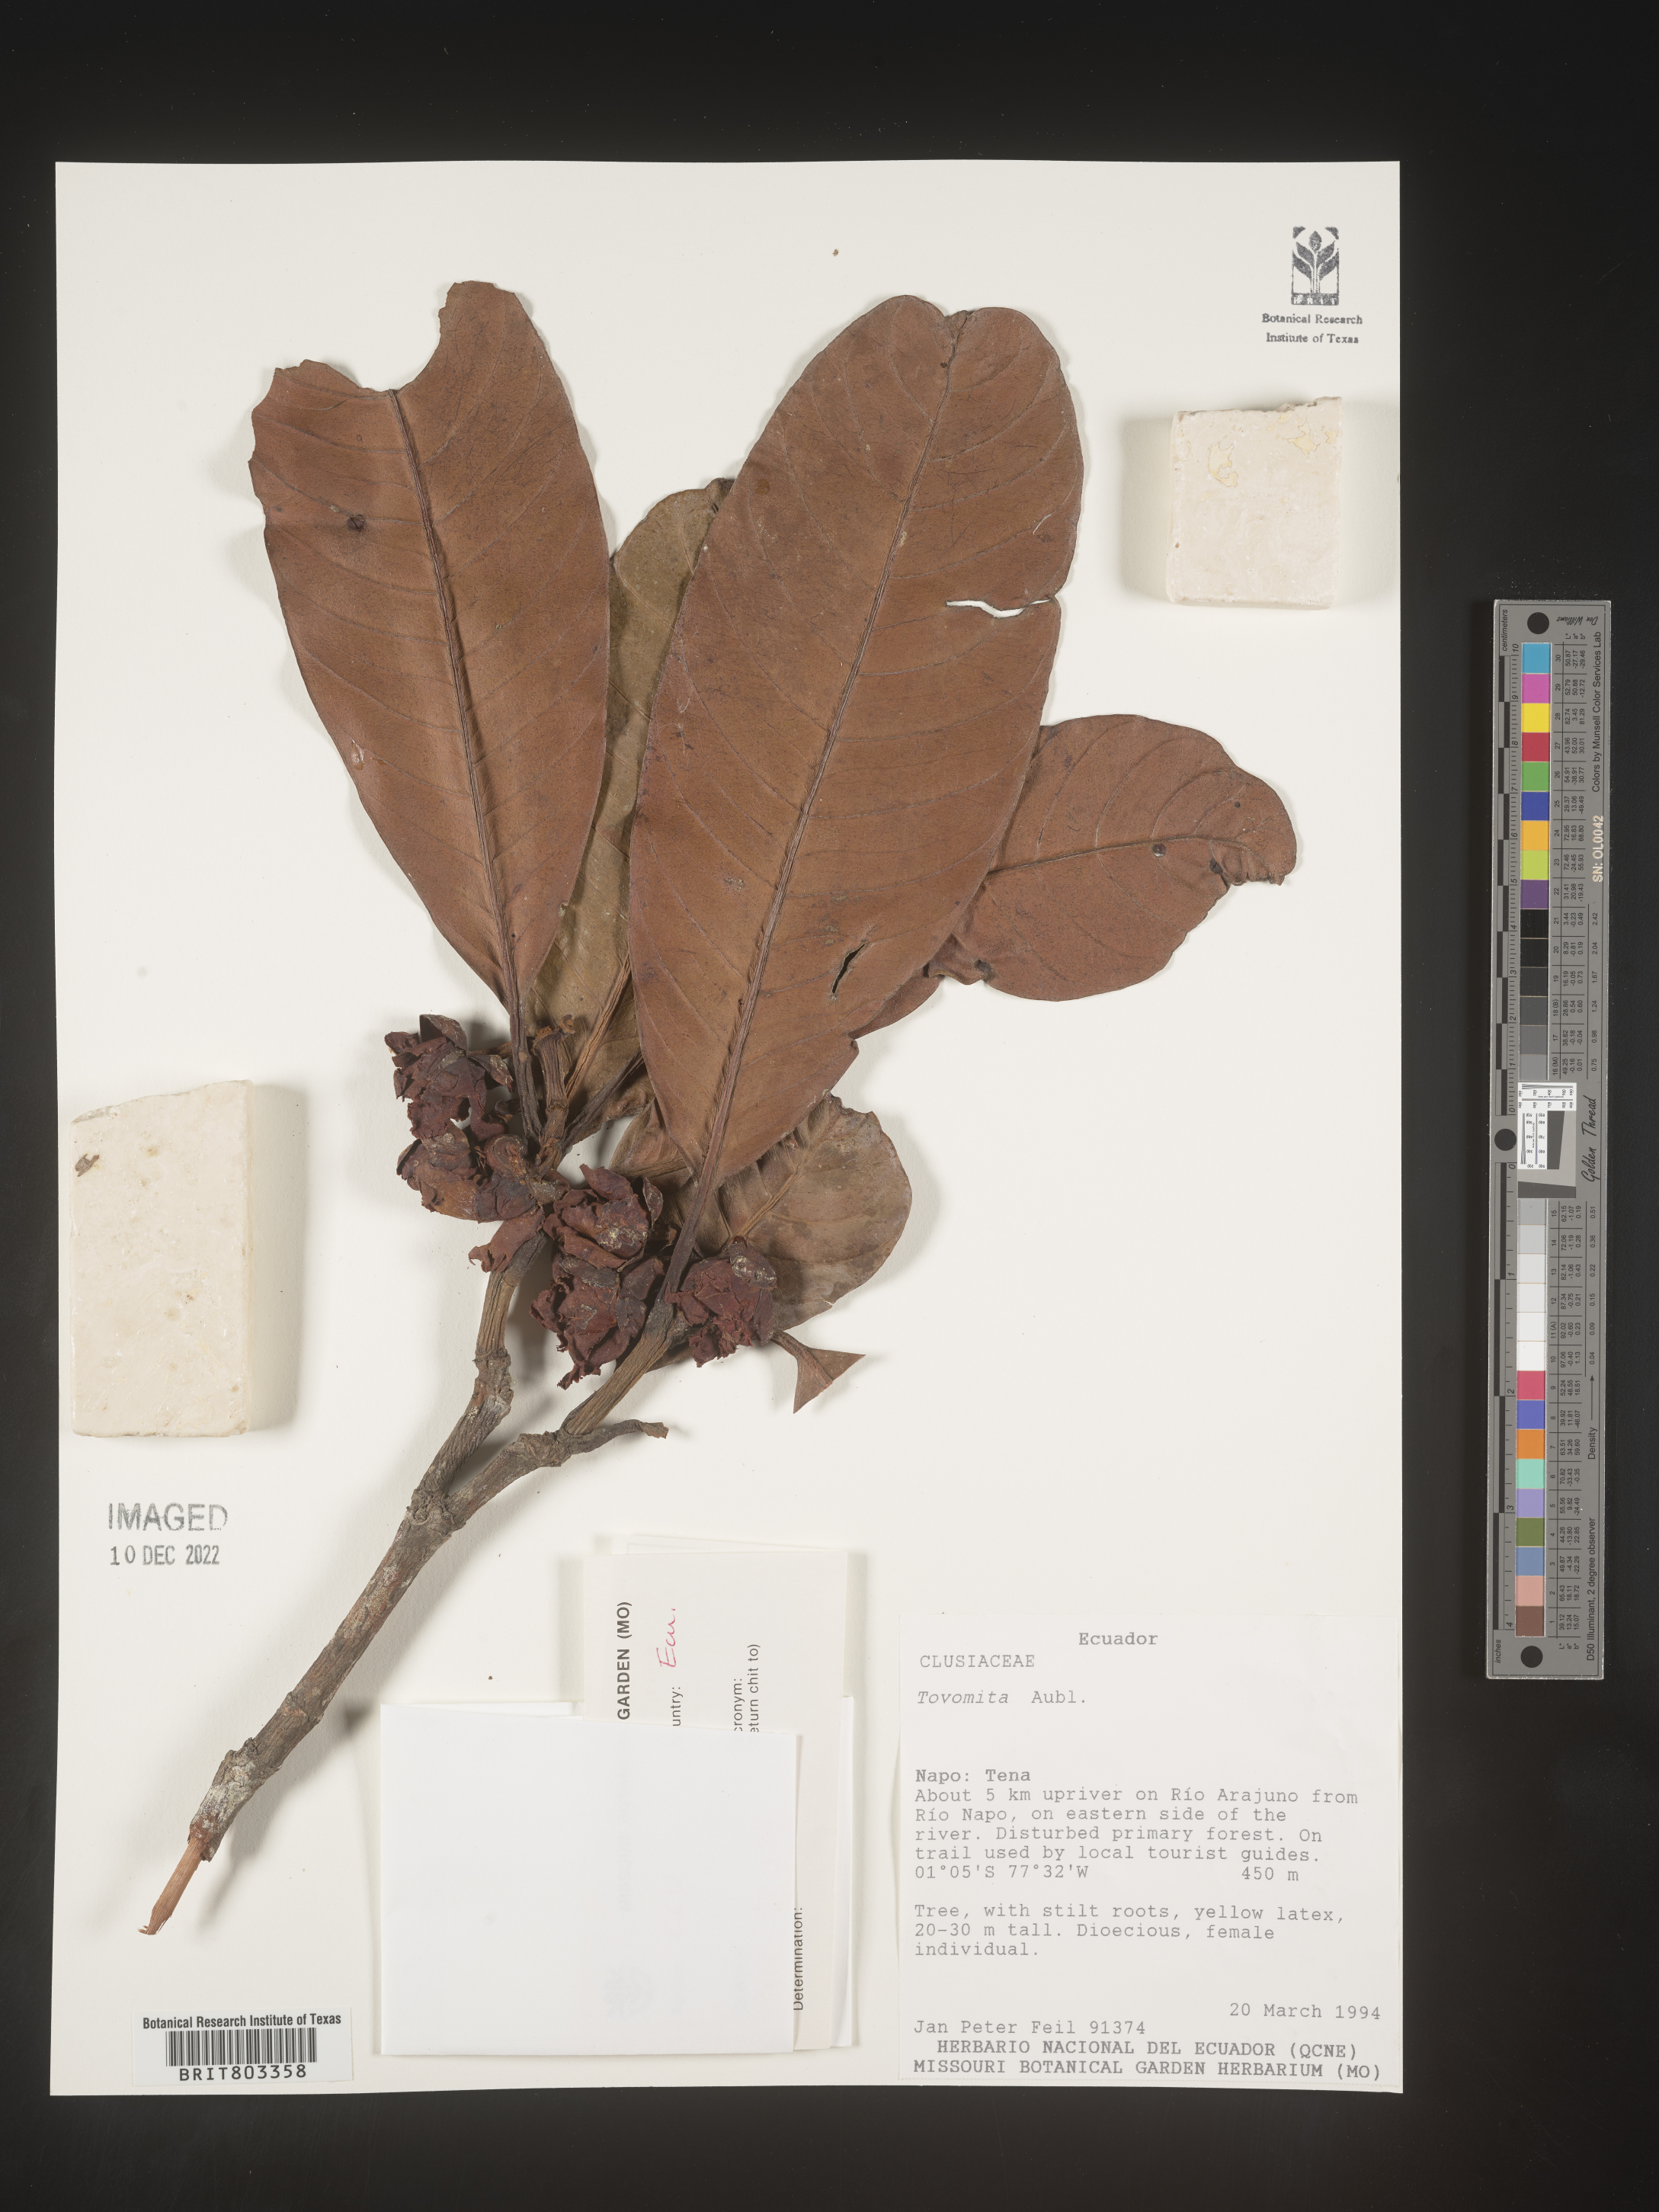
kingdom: Plantae
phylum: Tracheophyta
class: Magnoliopsida
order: Malpighiales
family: Clusiaceae
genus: Tovomita
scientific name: Tovomita
